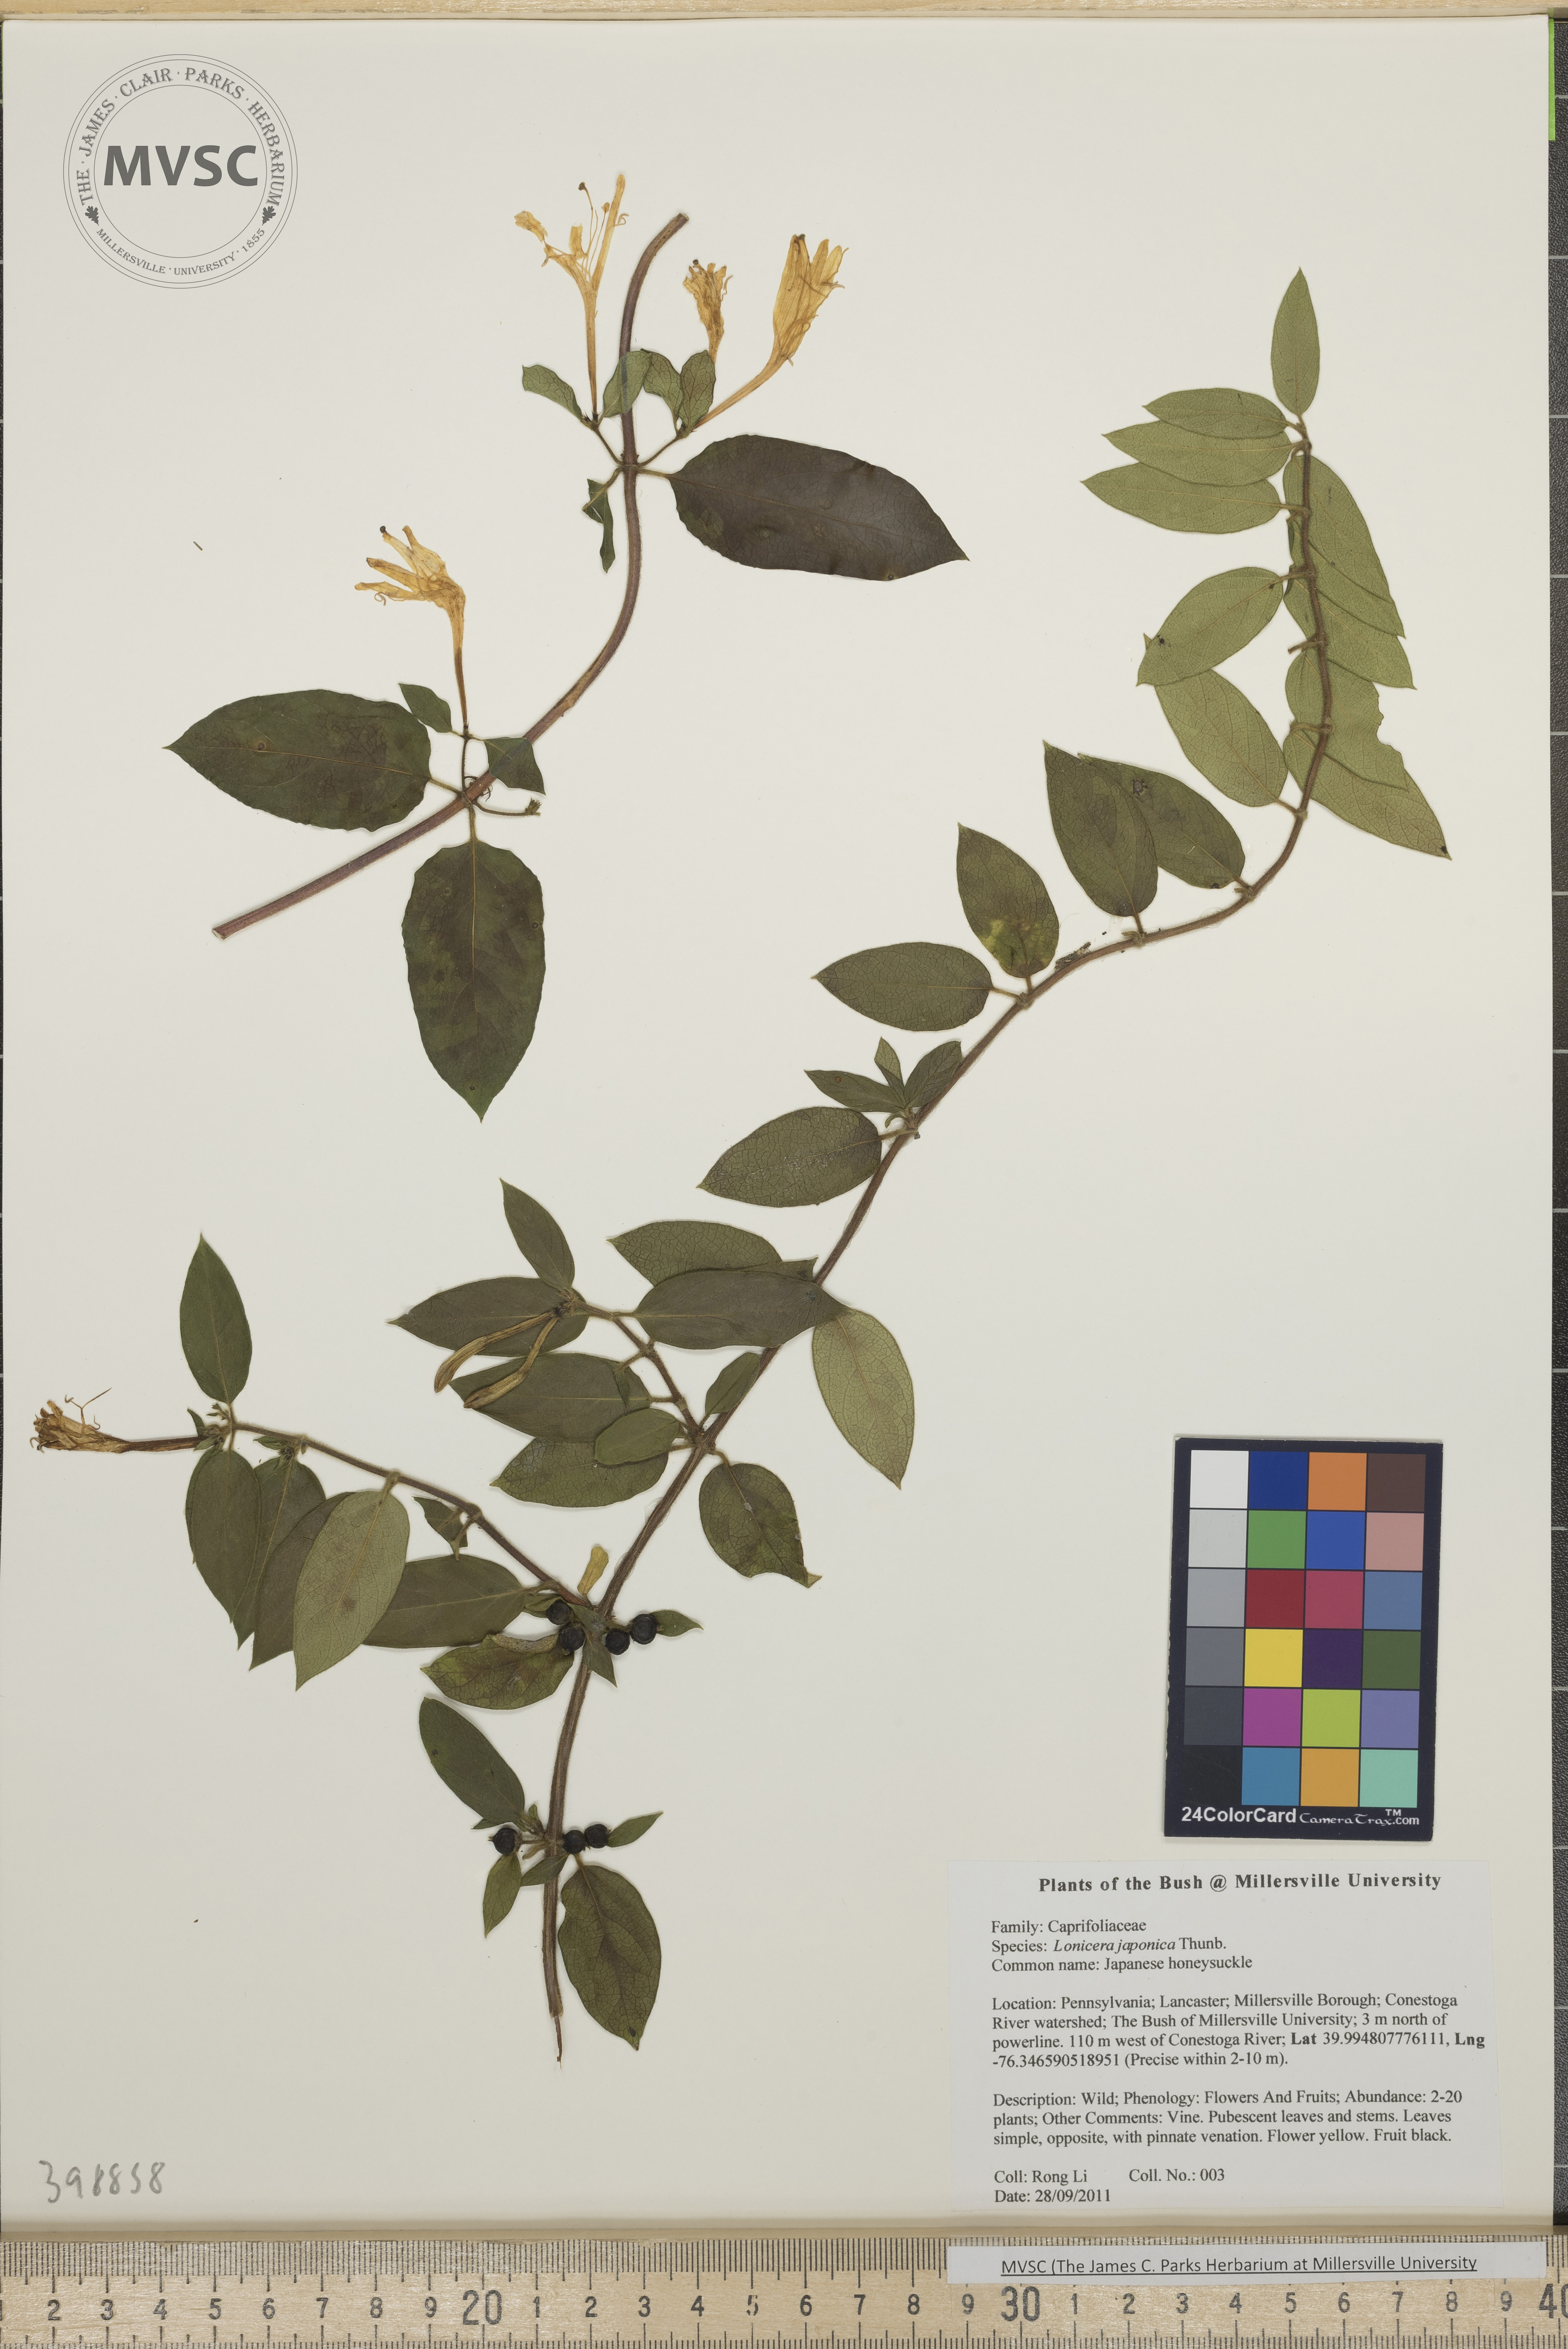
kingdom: Plantae
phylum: Tracheophyta
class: Magnoliopsida
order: Dipsacales
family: Caprifoliaceae
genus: Lonicera
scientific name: Lonicera japonica
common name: Japanese honeysuckle
